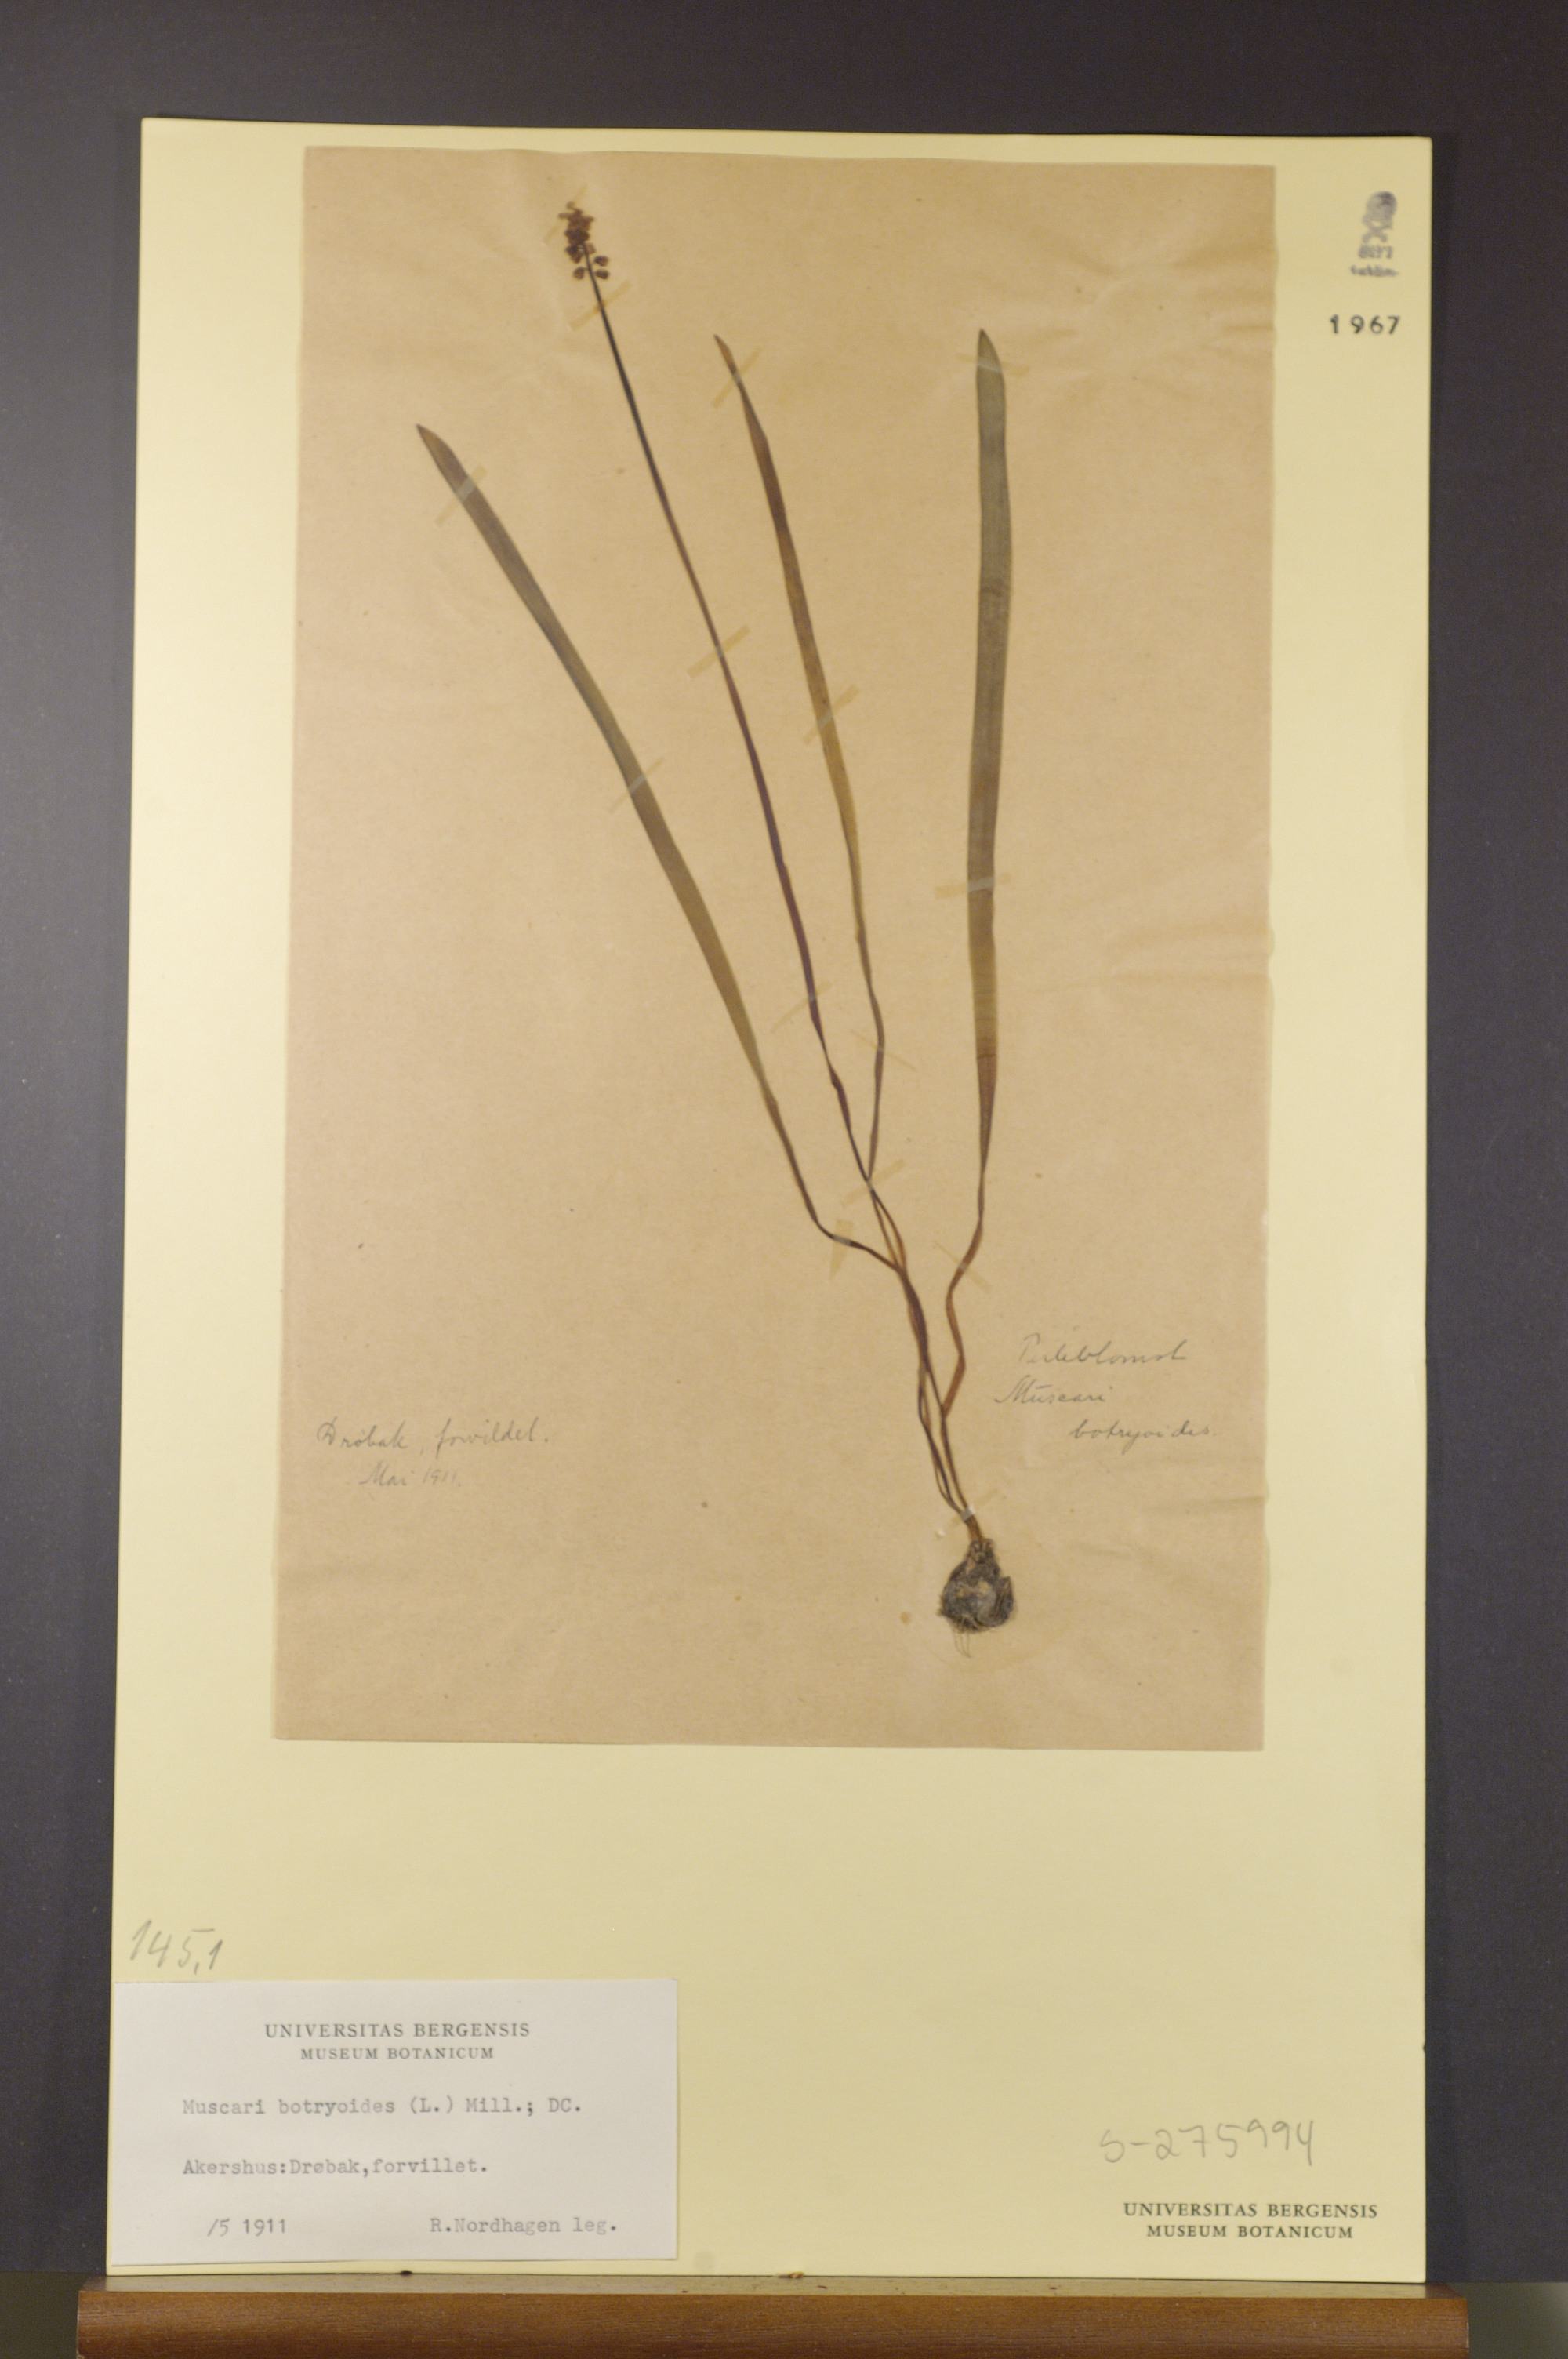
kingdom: Plantae
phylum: Tracheophyta
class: Liliopsida
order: Asparagales
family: Asparagaceae
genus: Muscari
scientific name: Muscari botryoides
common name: Compact grape-hyacinth
